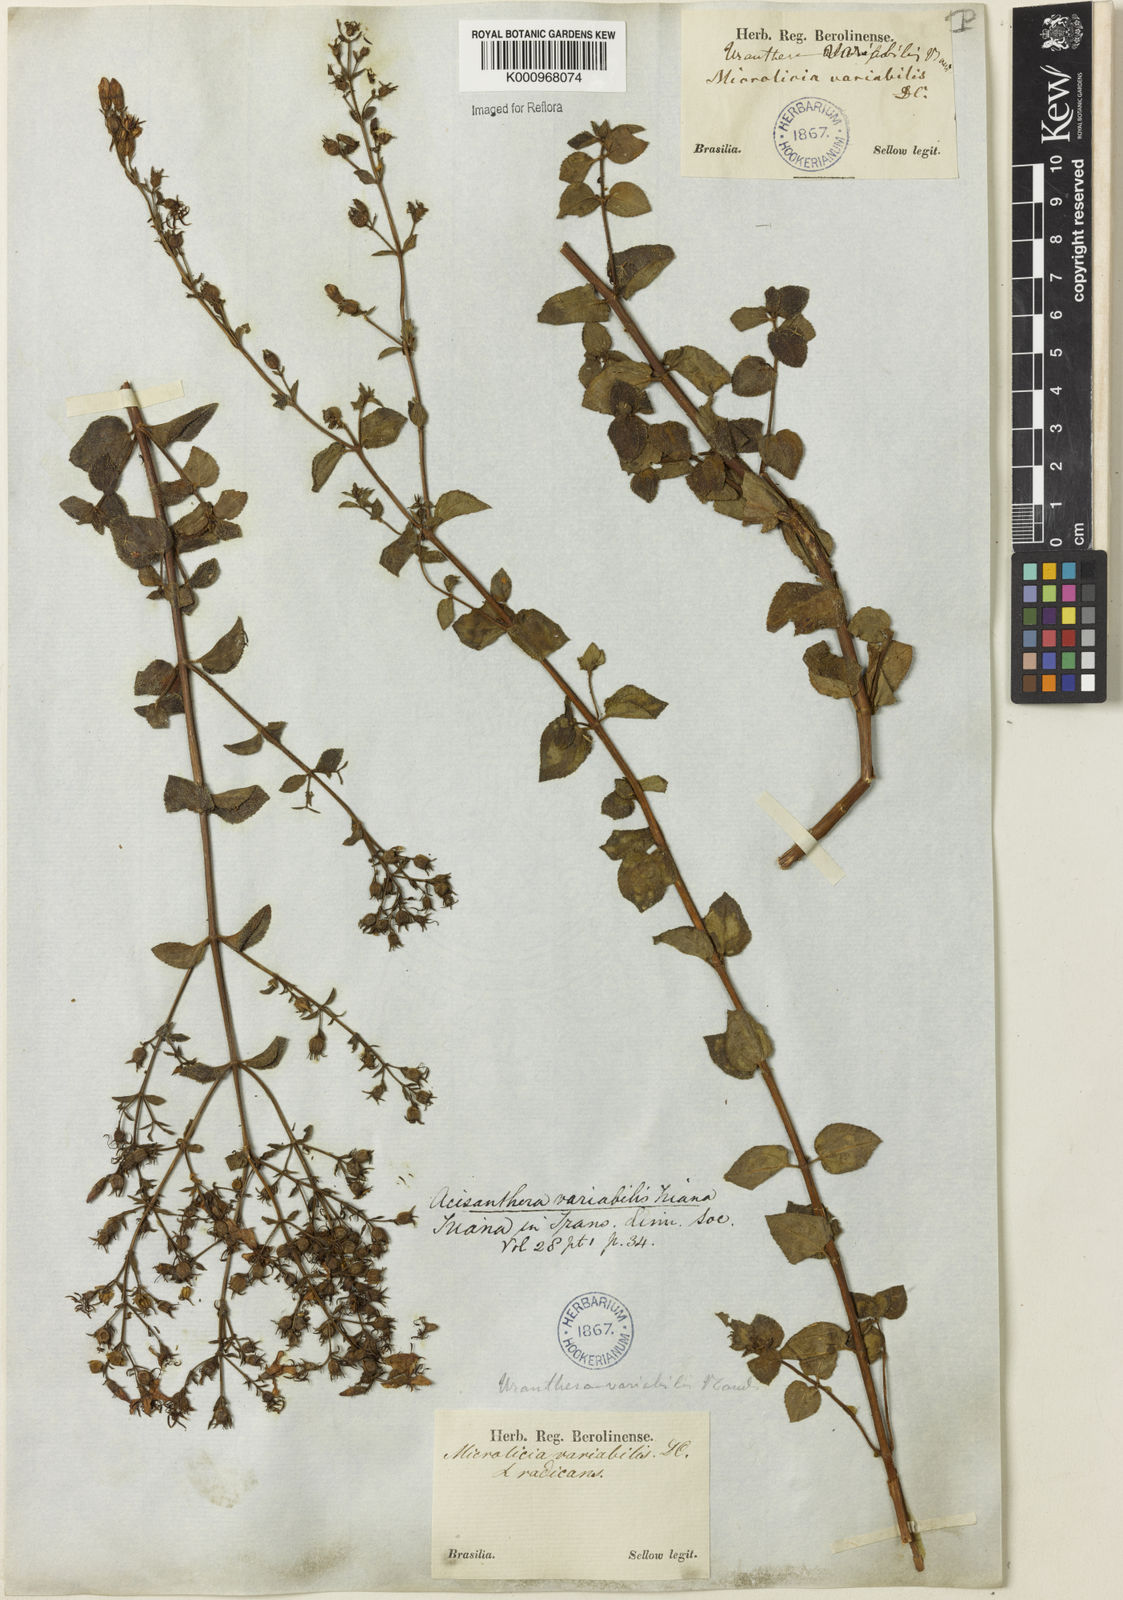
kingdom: Plantae
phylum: Tracheophyta
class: Magnoliopsida
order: Myrtales
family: Melastomataceae
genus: Acisanthera
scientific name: Acisanthera variabilis
